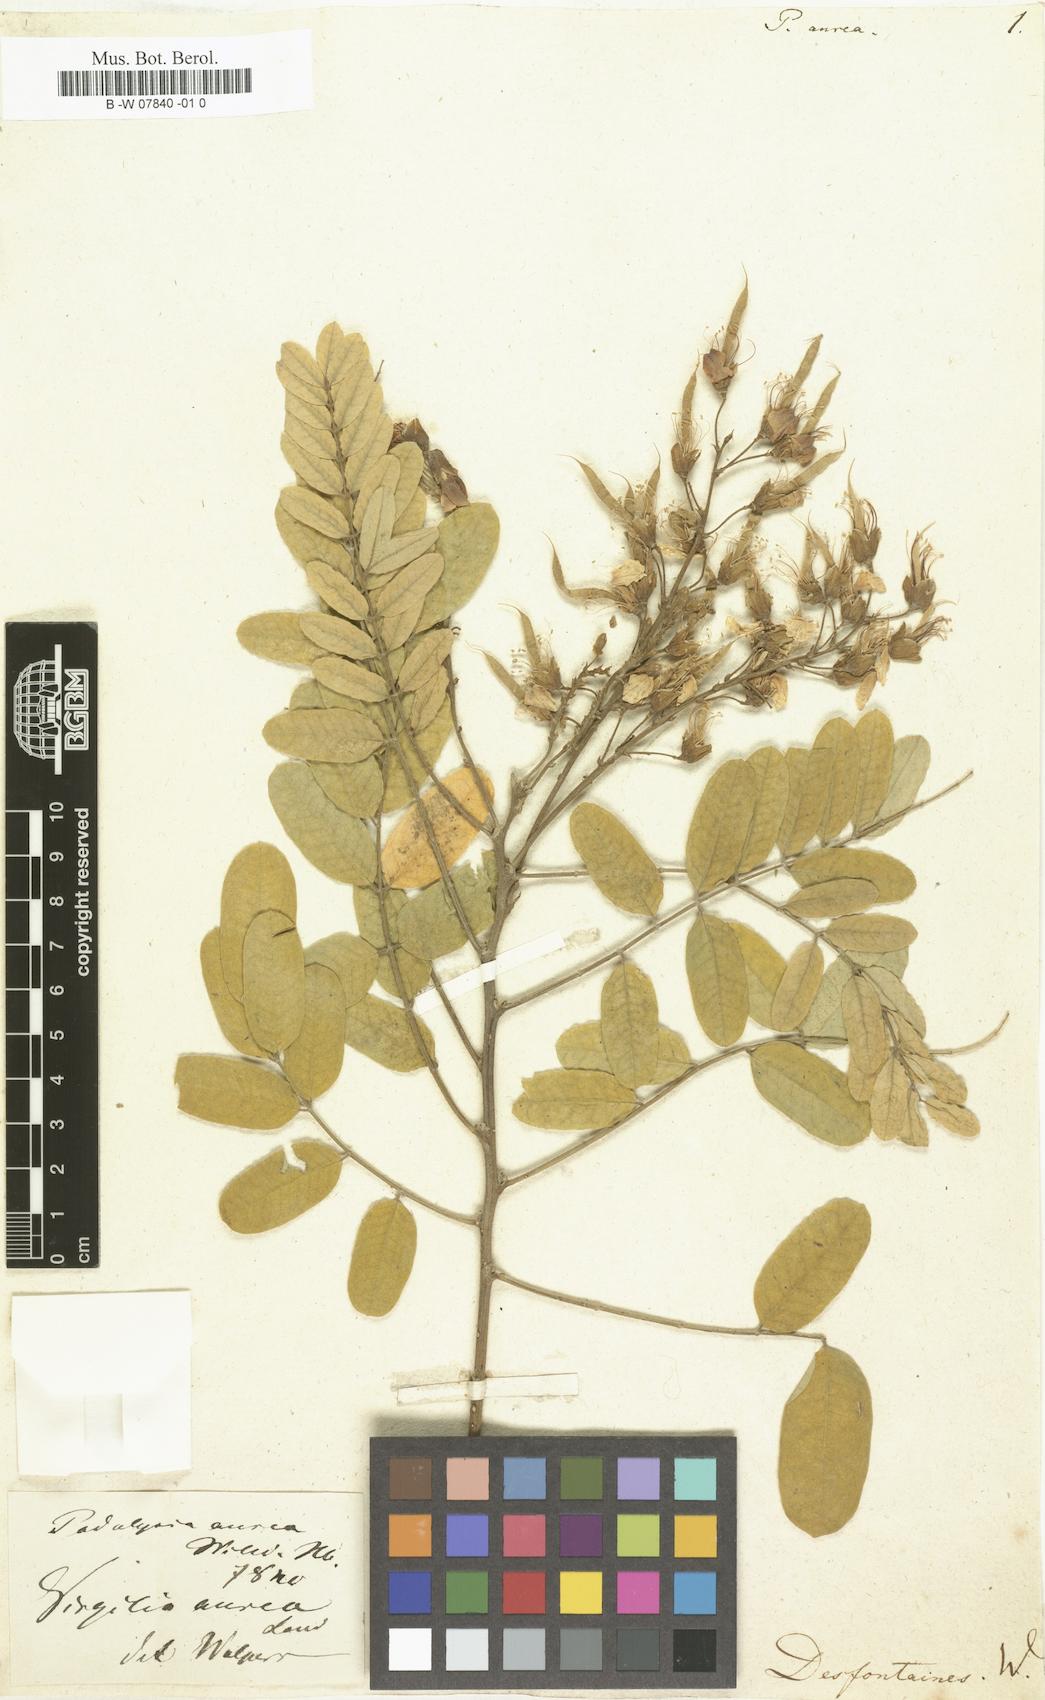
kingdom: Plantae
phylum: Tracheophyta
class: Magnoliopsida
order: Fabales
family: Fabaceae
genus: Calpurnia
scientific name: Calpurnia aurea
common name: Wild laburnum
